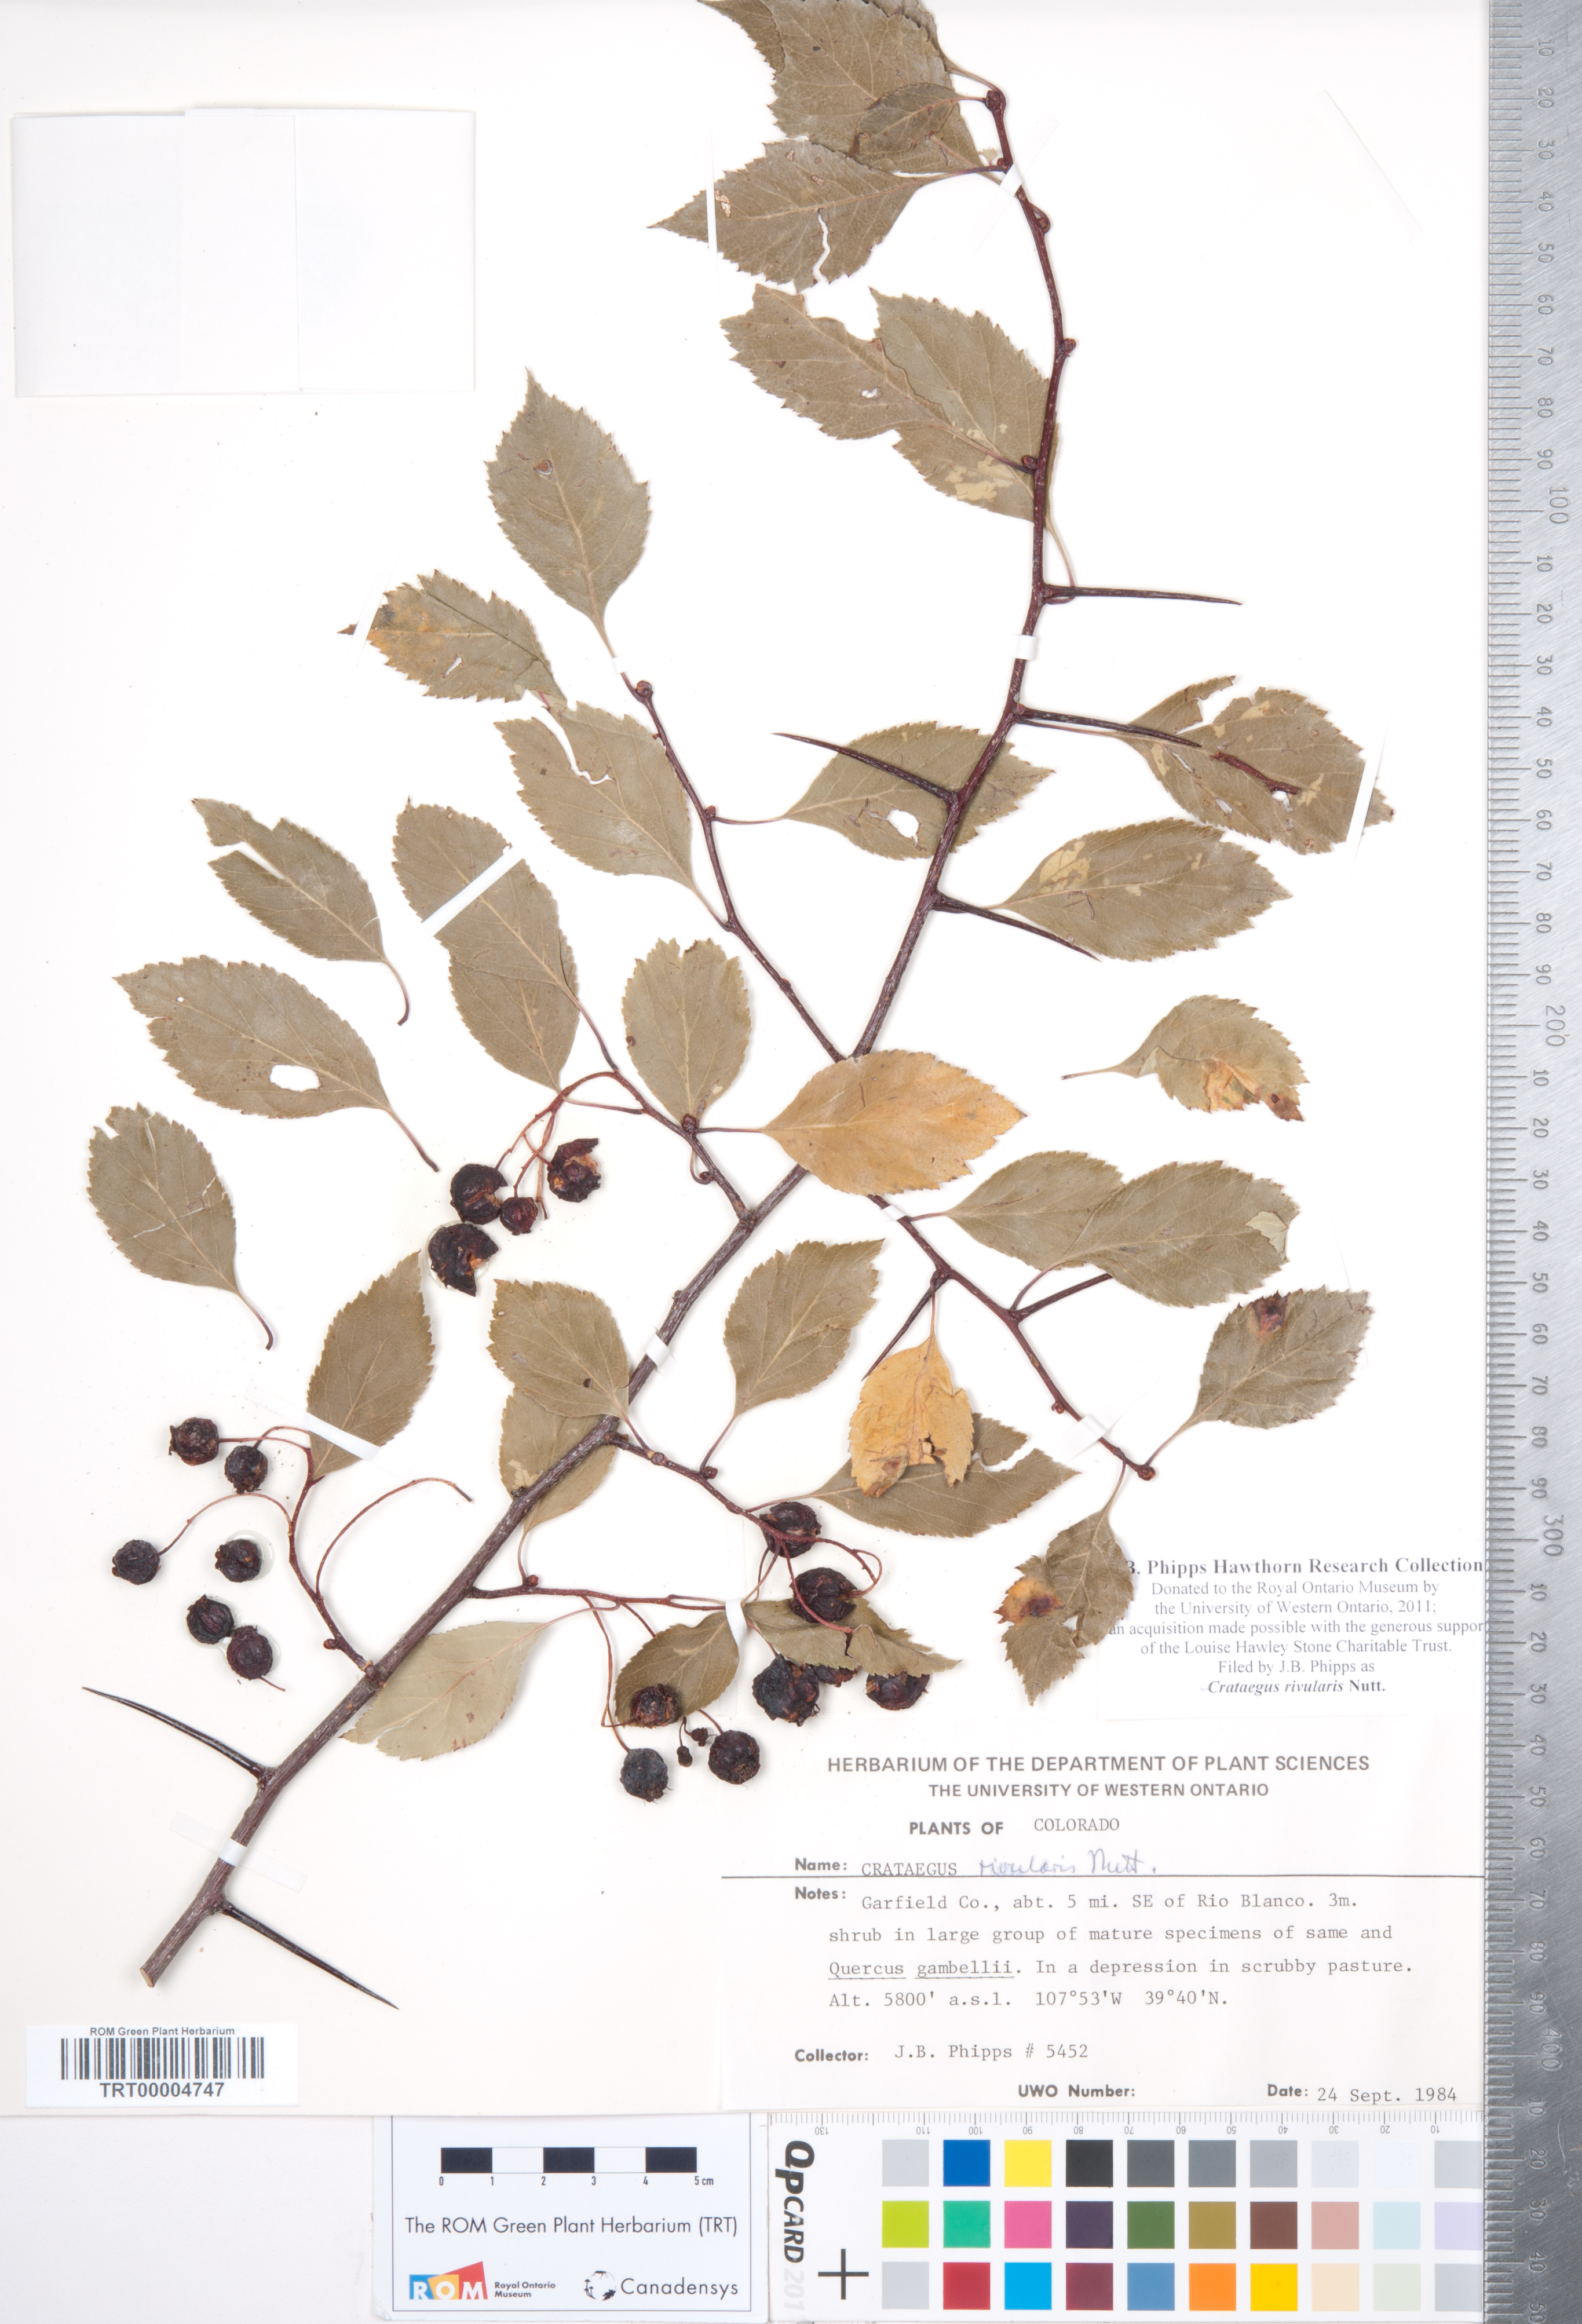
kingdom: Plantae
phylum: Tracheophyta
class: Magnoliopsida
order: Rosales
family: Rosaceae
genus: Crataegus
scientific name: Crataegus rivularis
